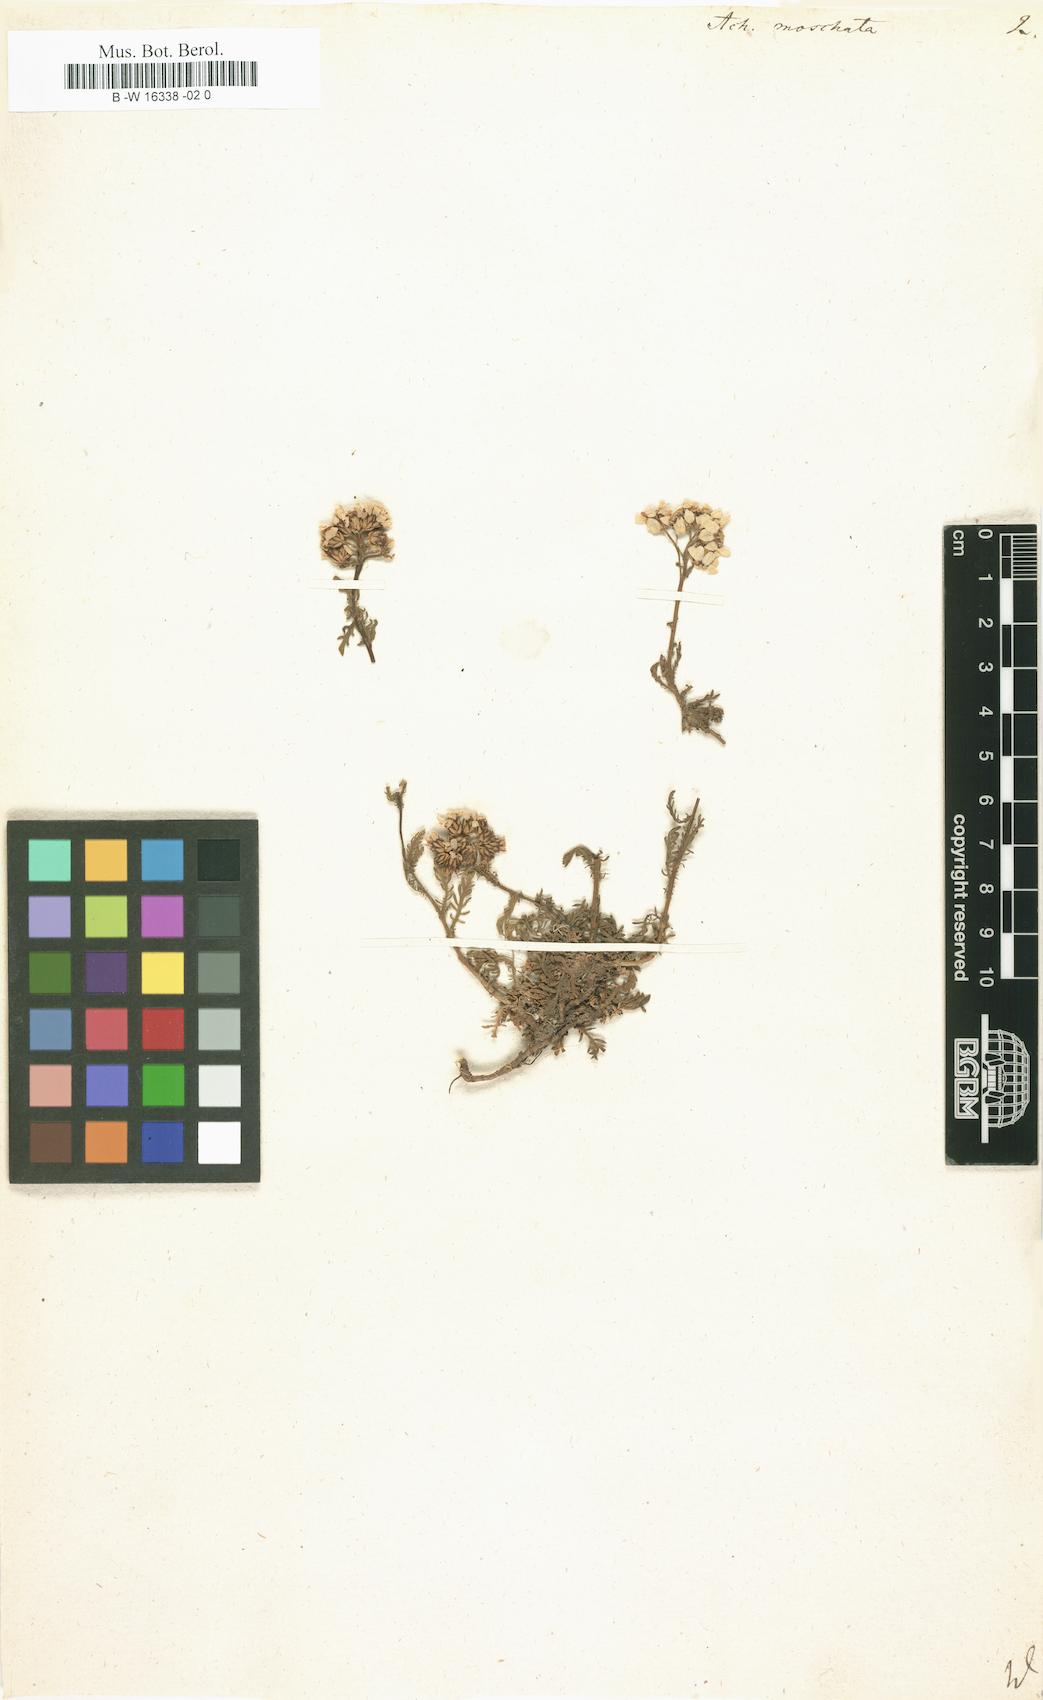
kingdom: Plantae
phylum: Tracheophyta
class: Magnoliopsida
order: Asterales
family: Asteraceae
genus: Achillea
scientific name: Achillea erba-rotta
